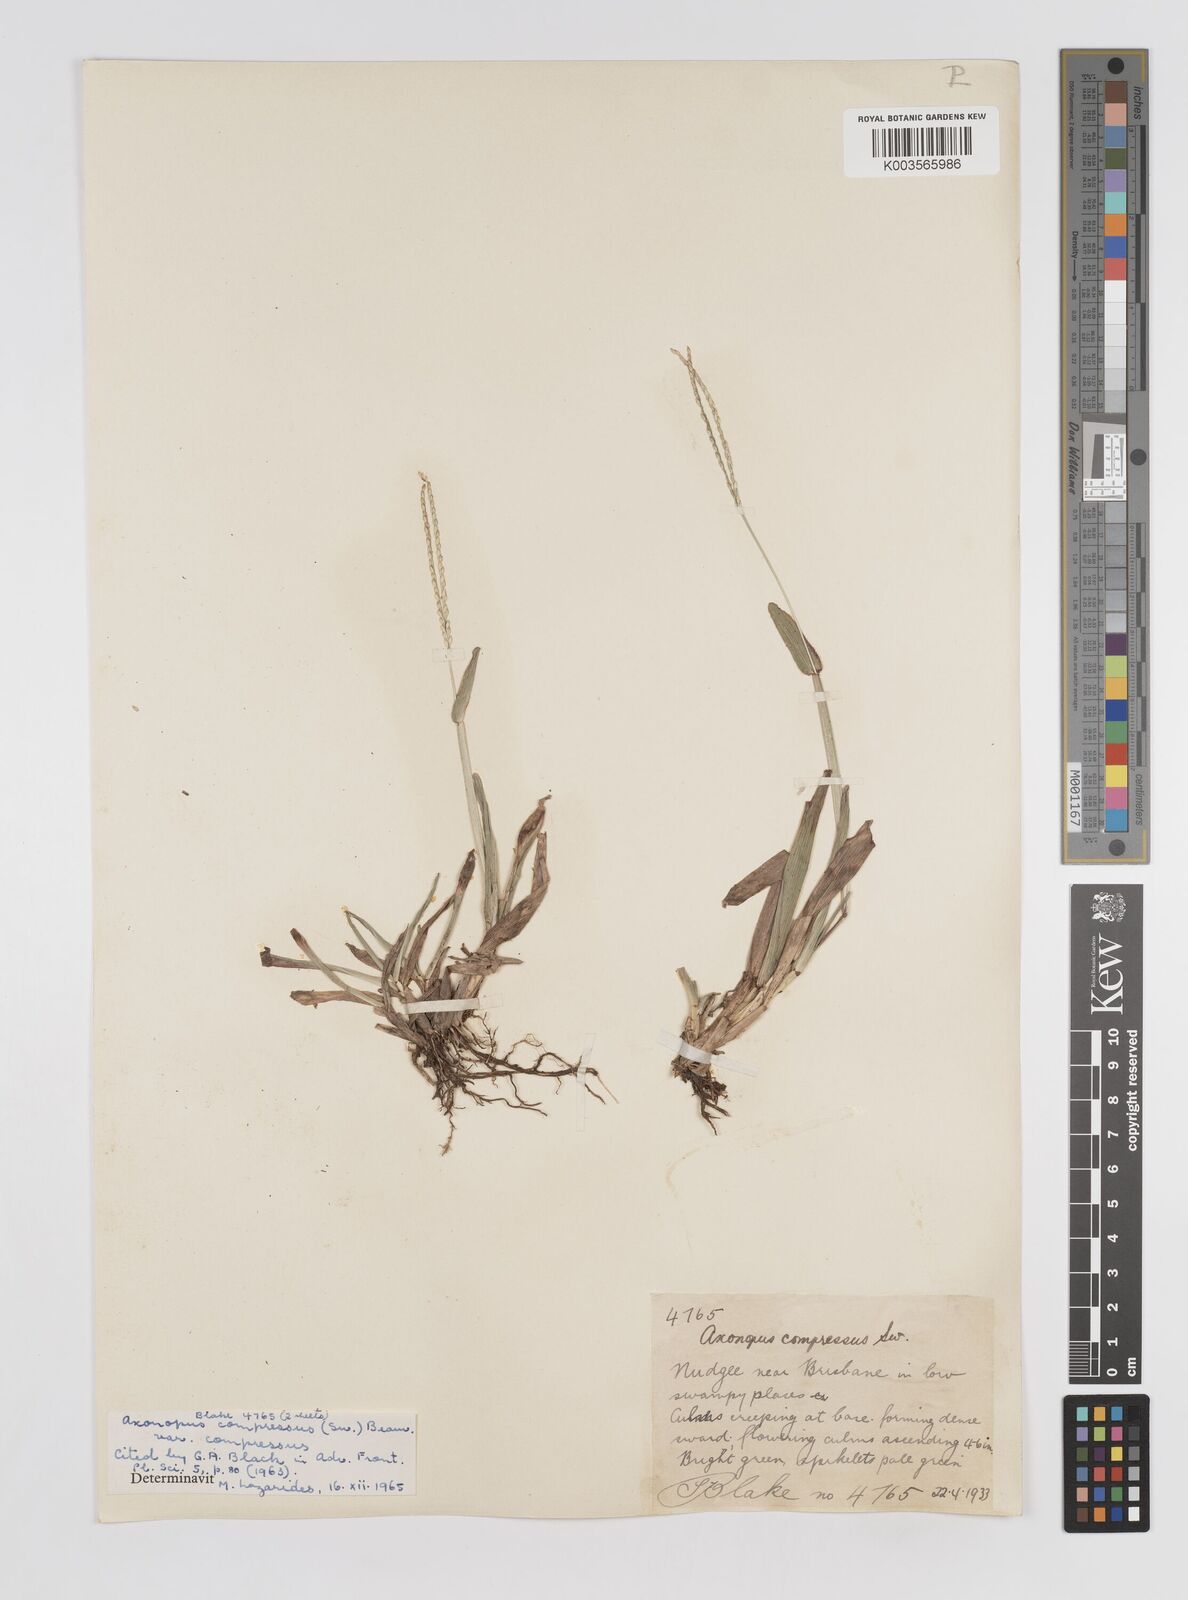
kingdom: Plantae
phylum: Tracheophyta
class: Liliopsida
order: Poales
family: Poaceae
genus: Axonopus
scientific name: Axonopus compressus
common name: American carpet grass
